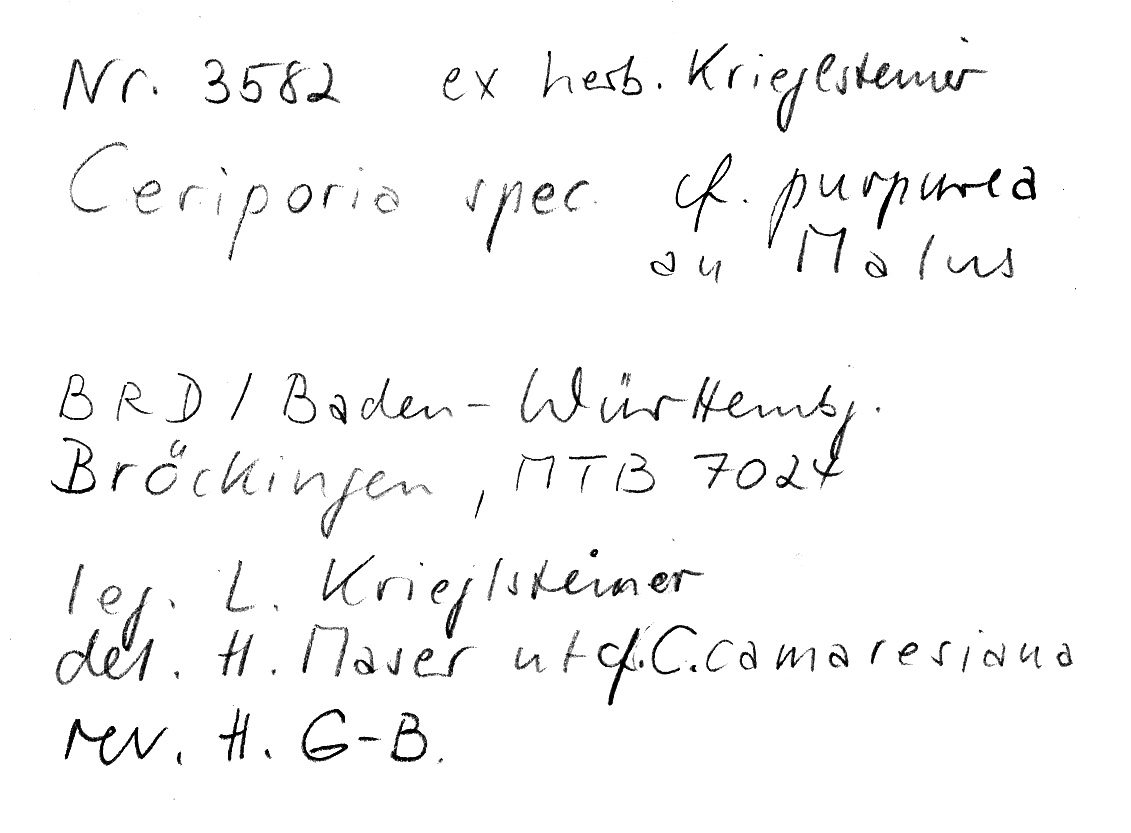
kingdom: Plantae
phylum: Tracheophyta
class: Magnoliopsida
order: Rosales
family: Rosaceae
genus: Malus
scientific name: Malus
